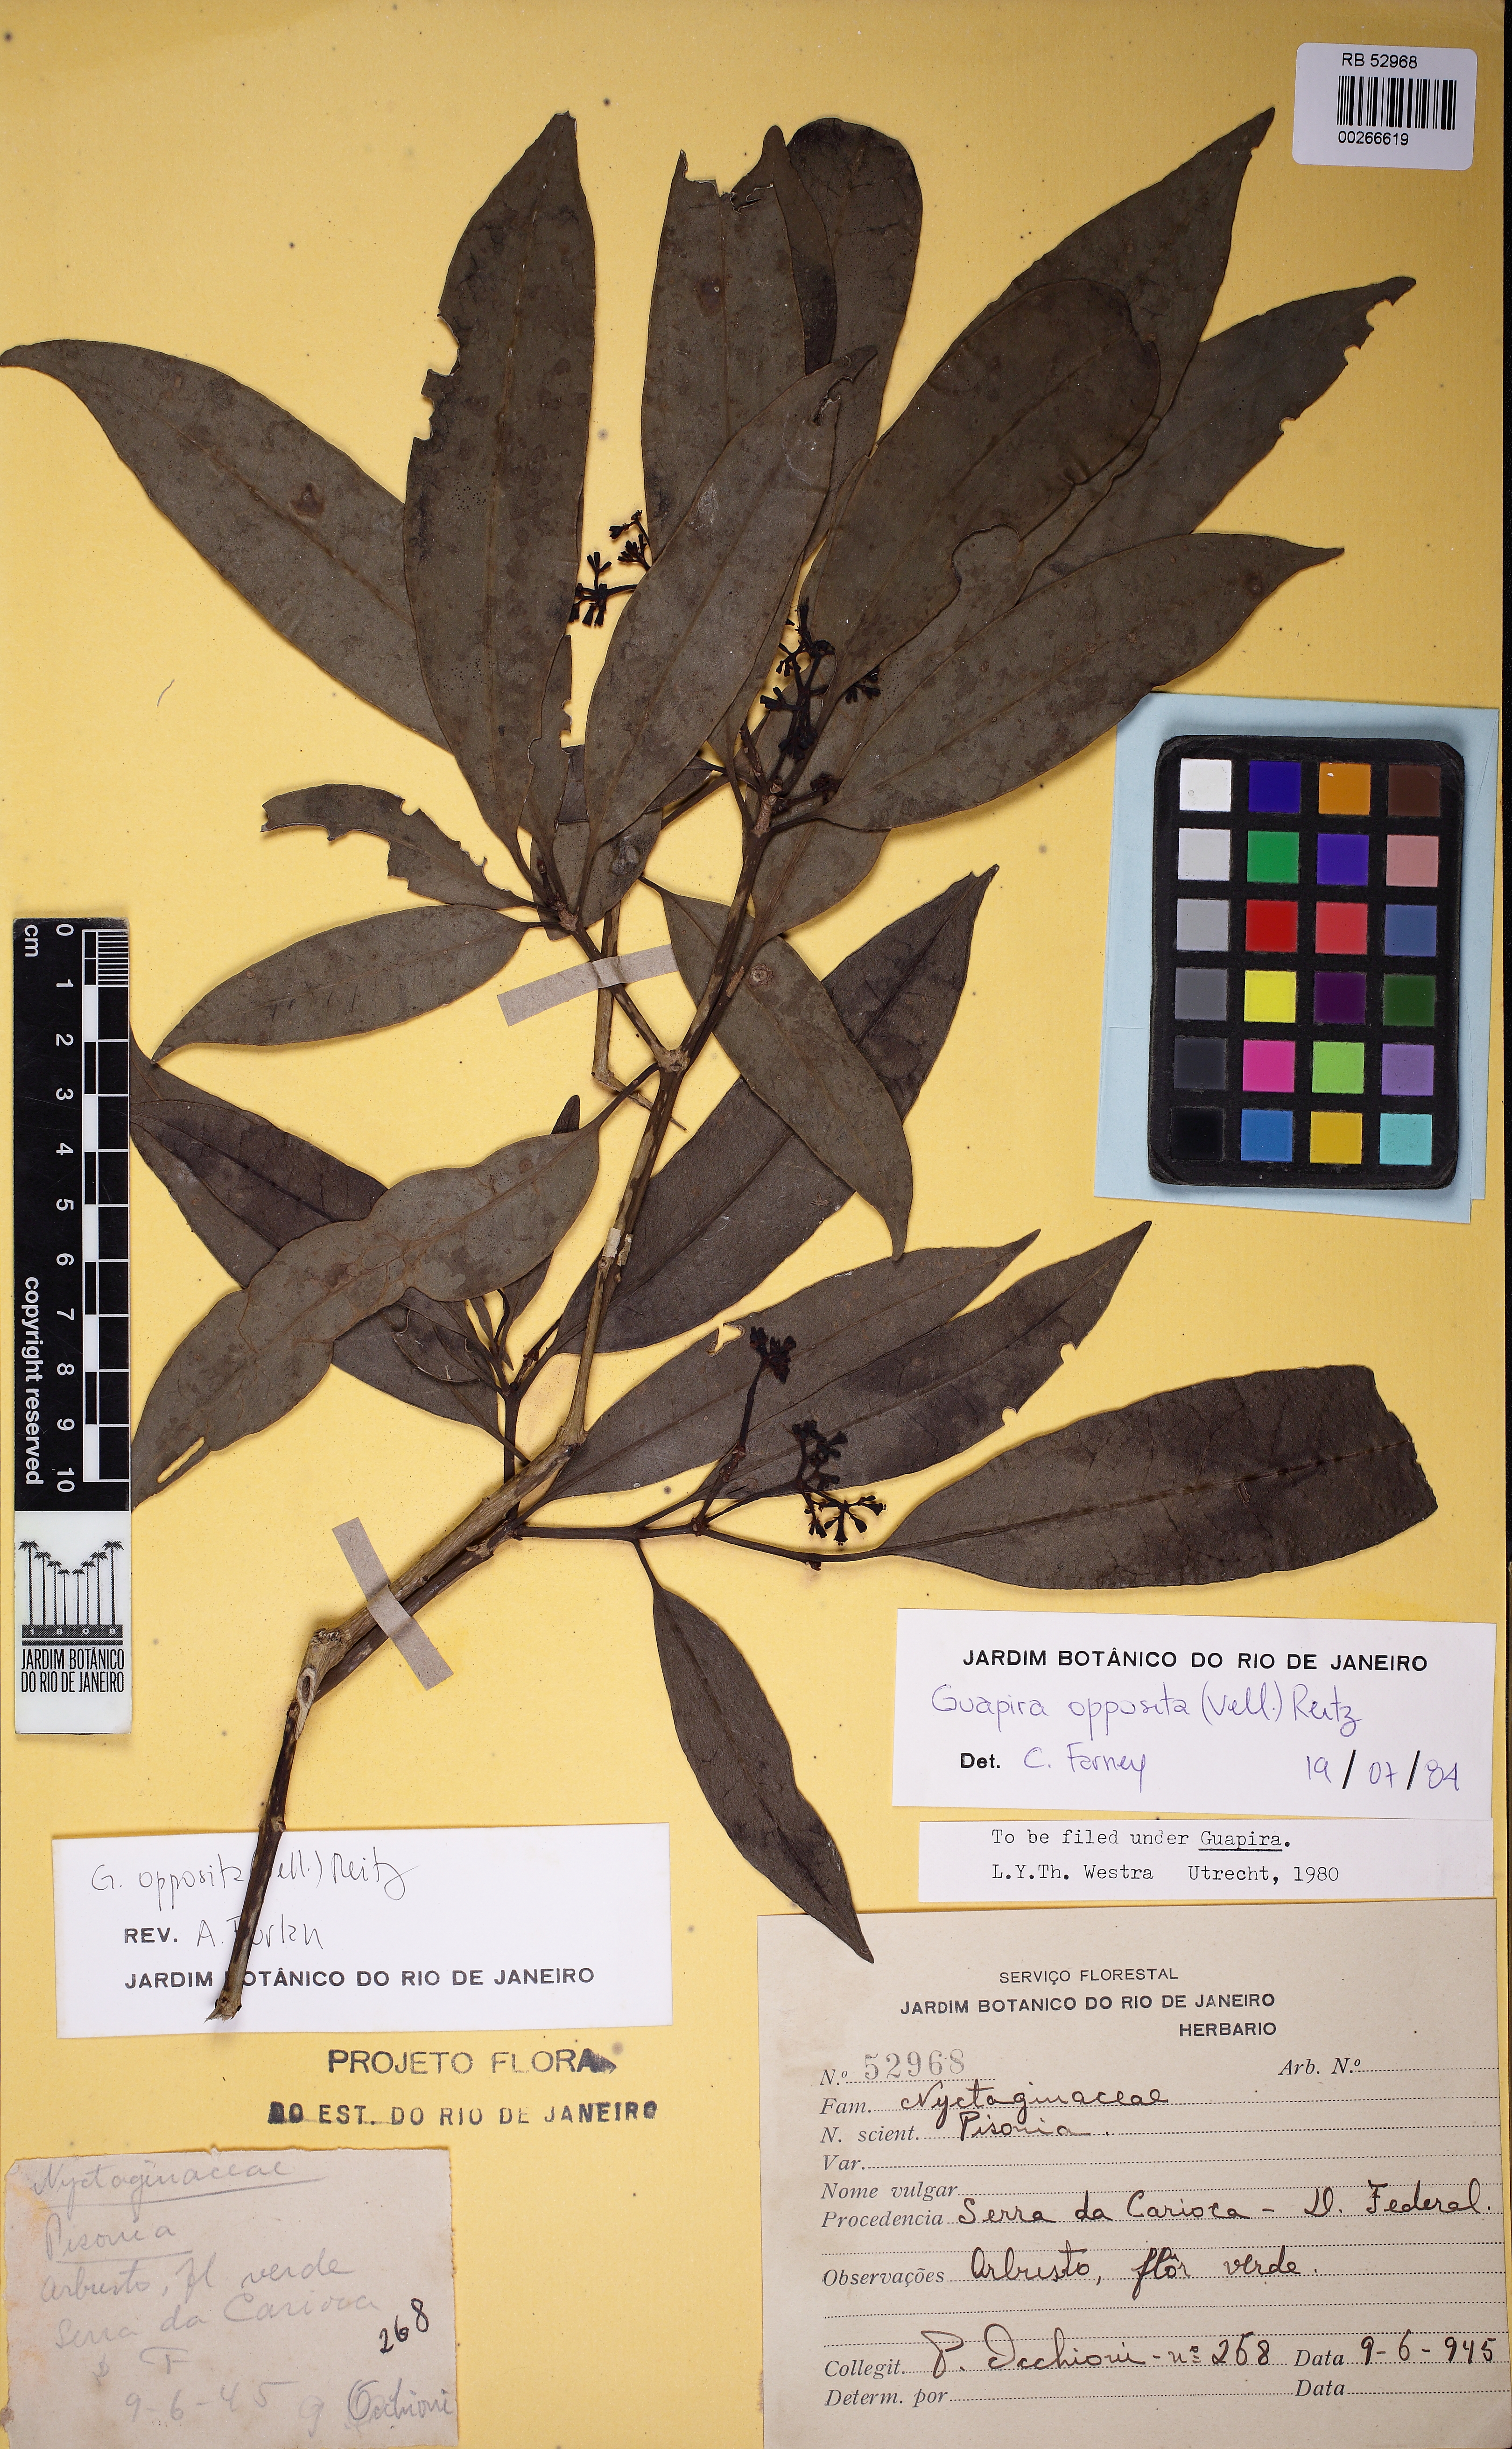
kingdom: Plantae
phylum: Tracheophyta
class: Magnoliopsida
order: Caryophyllales
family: Nyctaginaceae
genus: Guapira
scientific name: Guapira opposita
